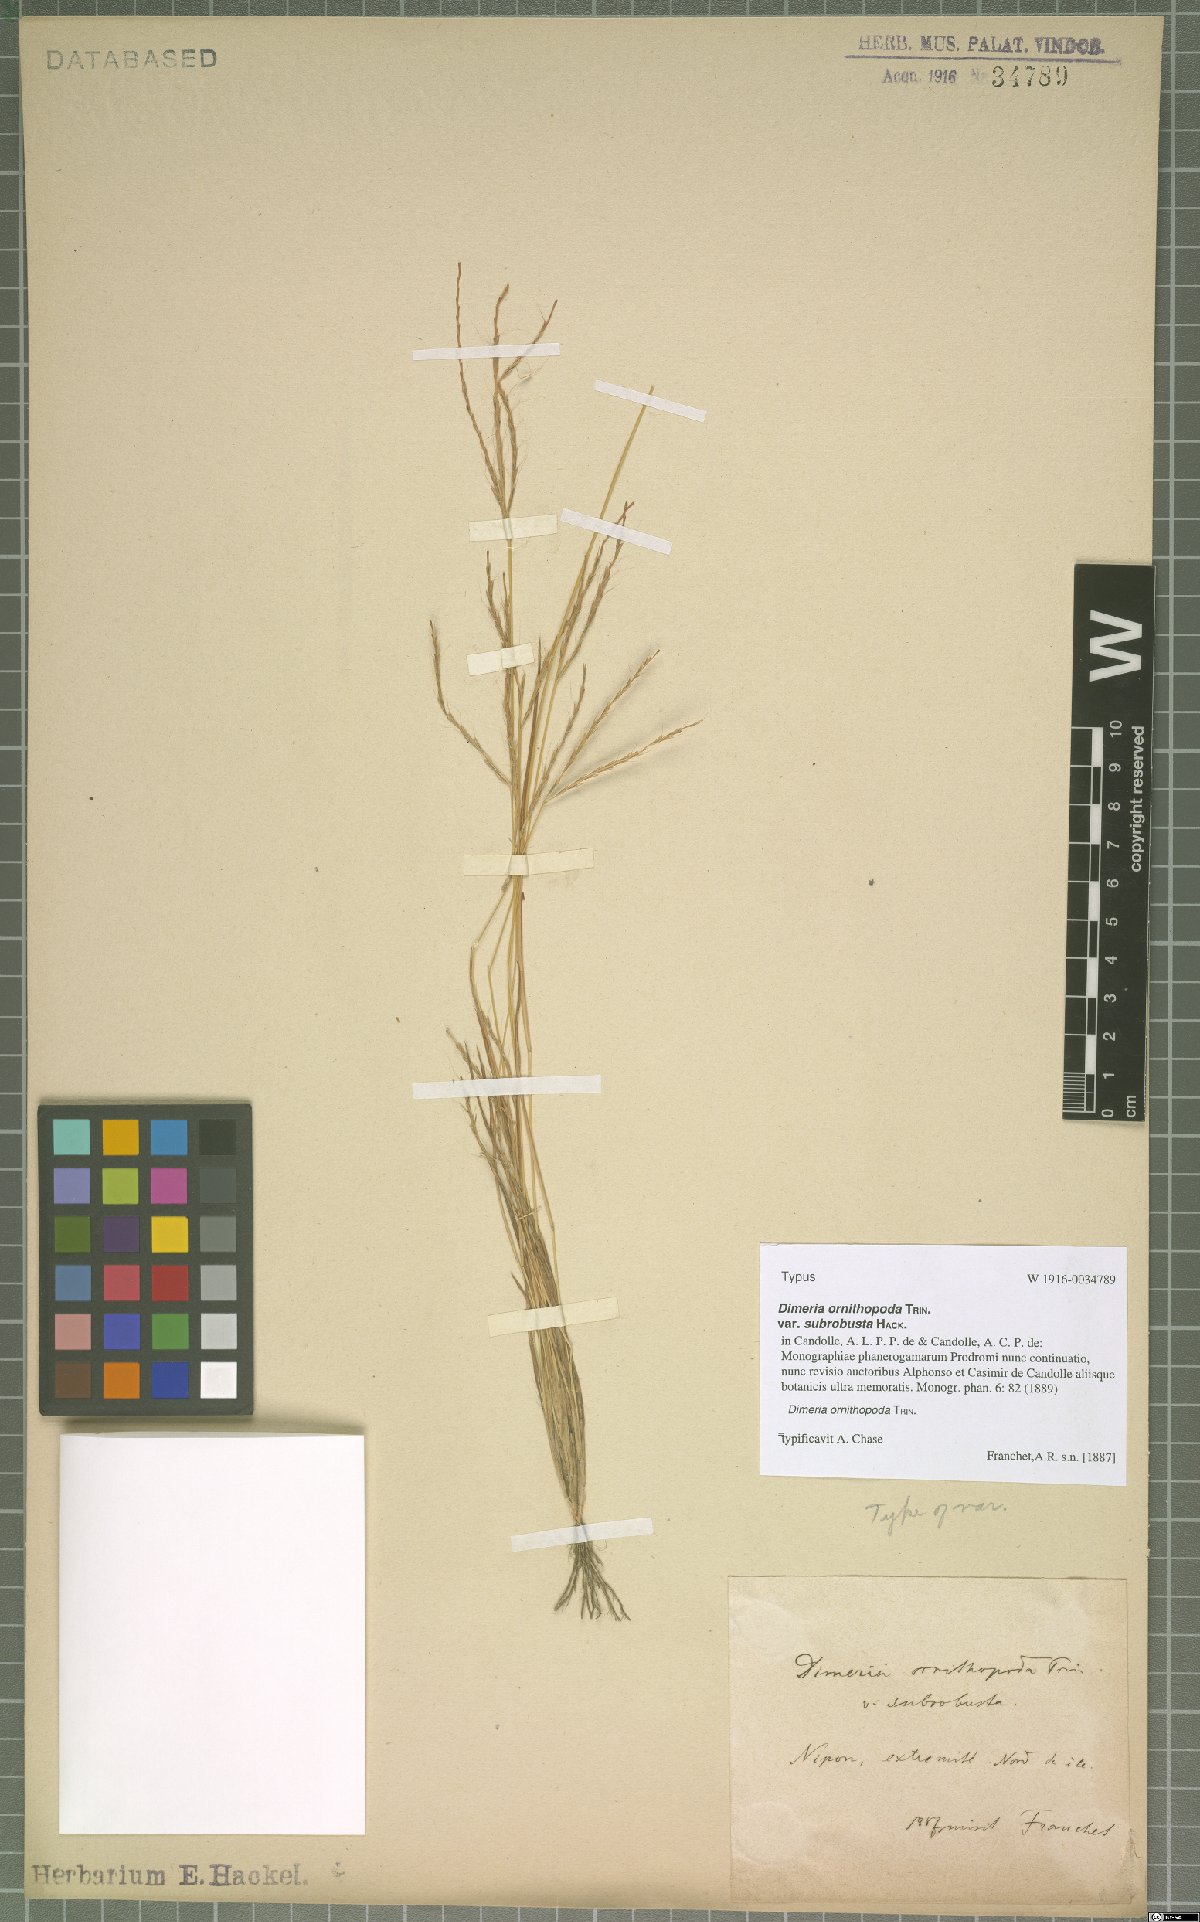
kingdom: Plantae
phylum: Tracheophyta
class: Liliopsida
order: Poales
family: Poaceae
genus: Dimeria
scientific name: Dimeria ornithopoda
